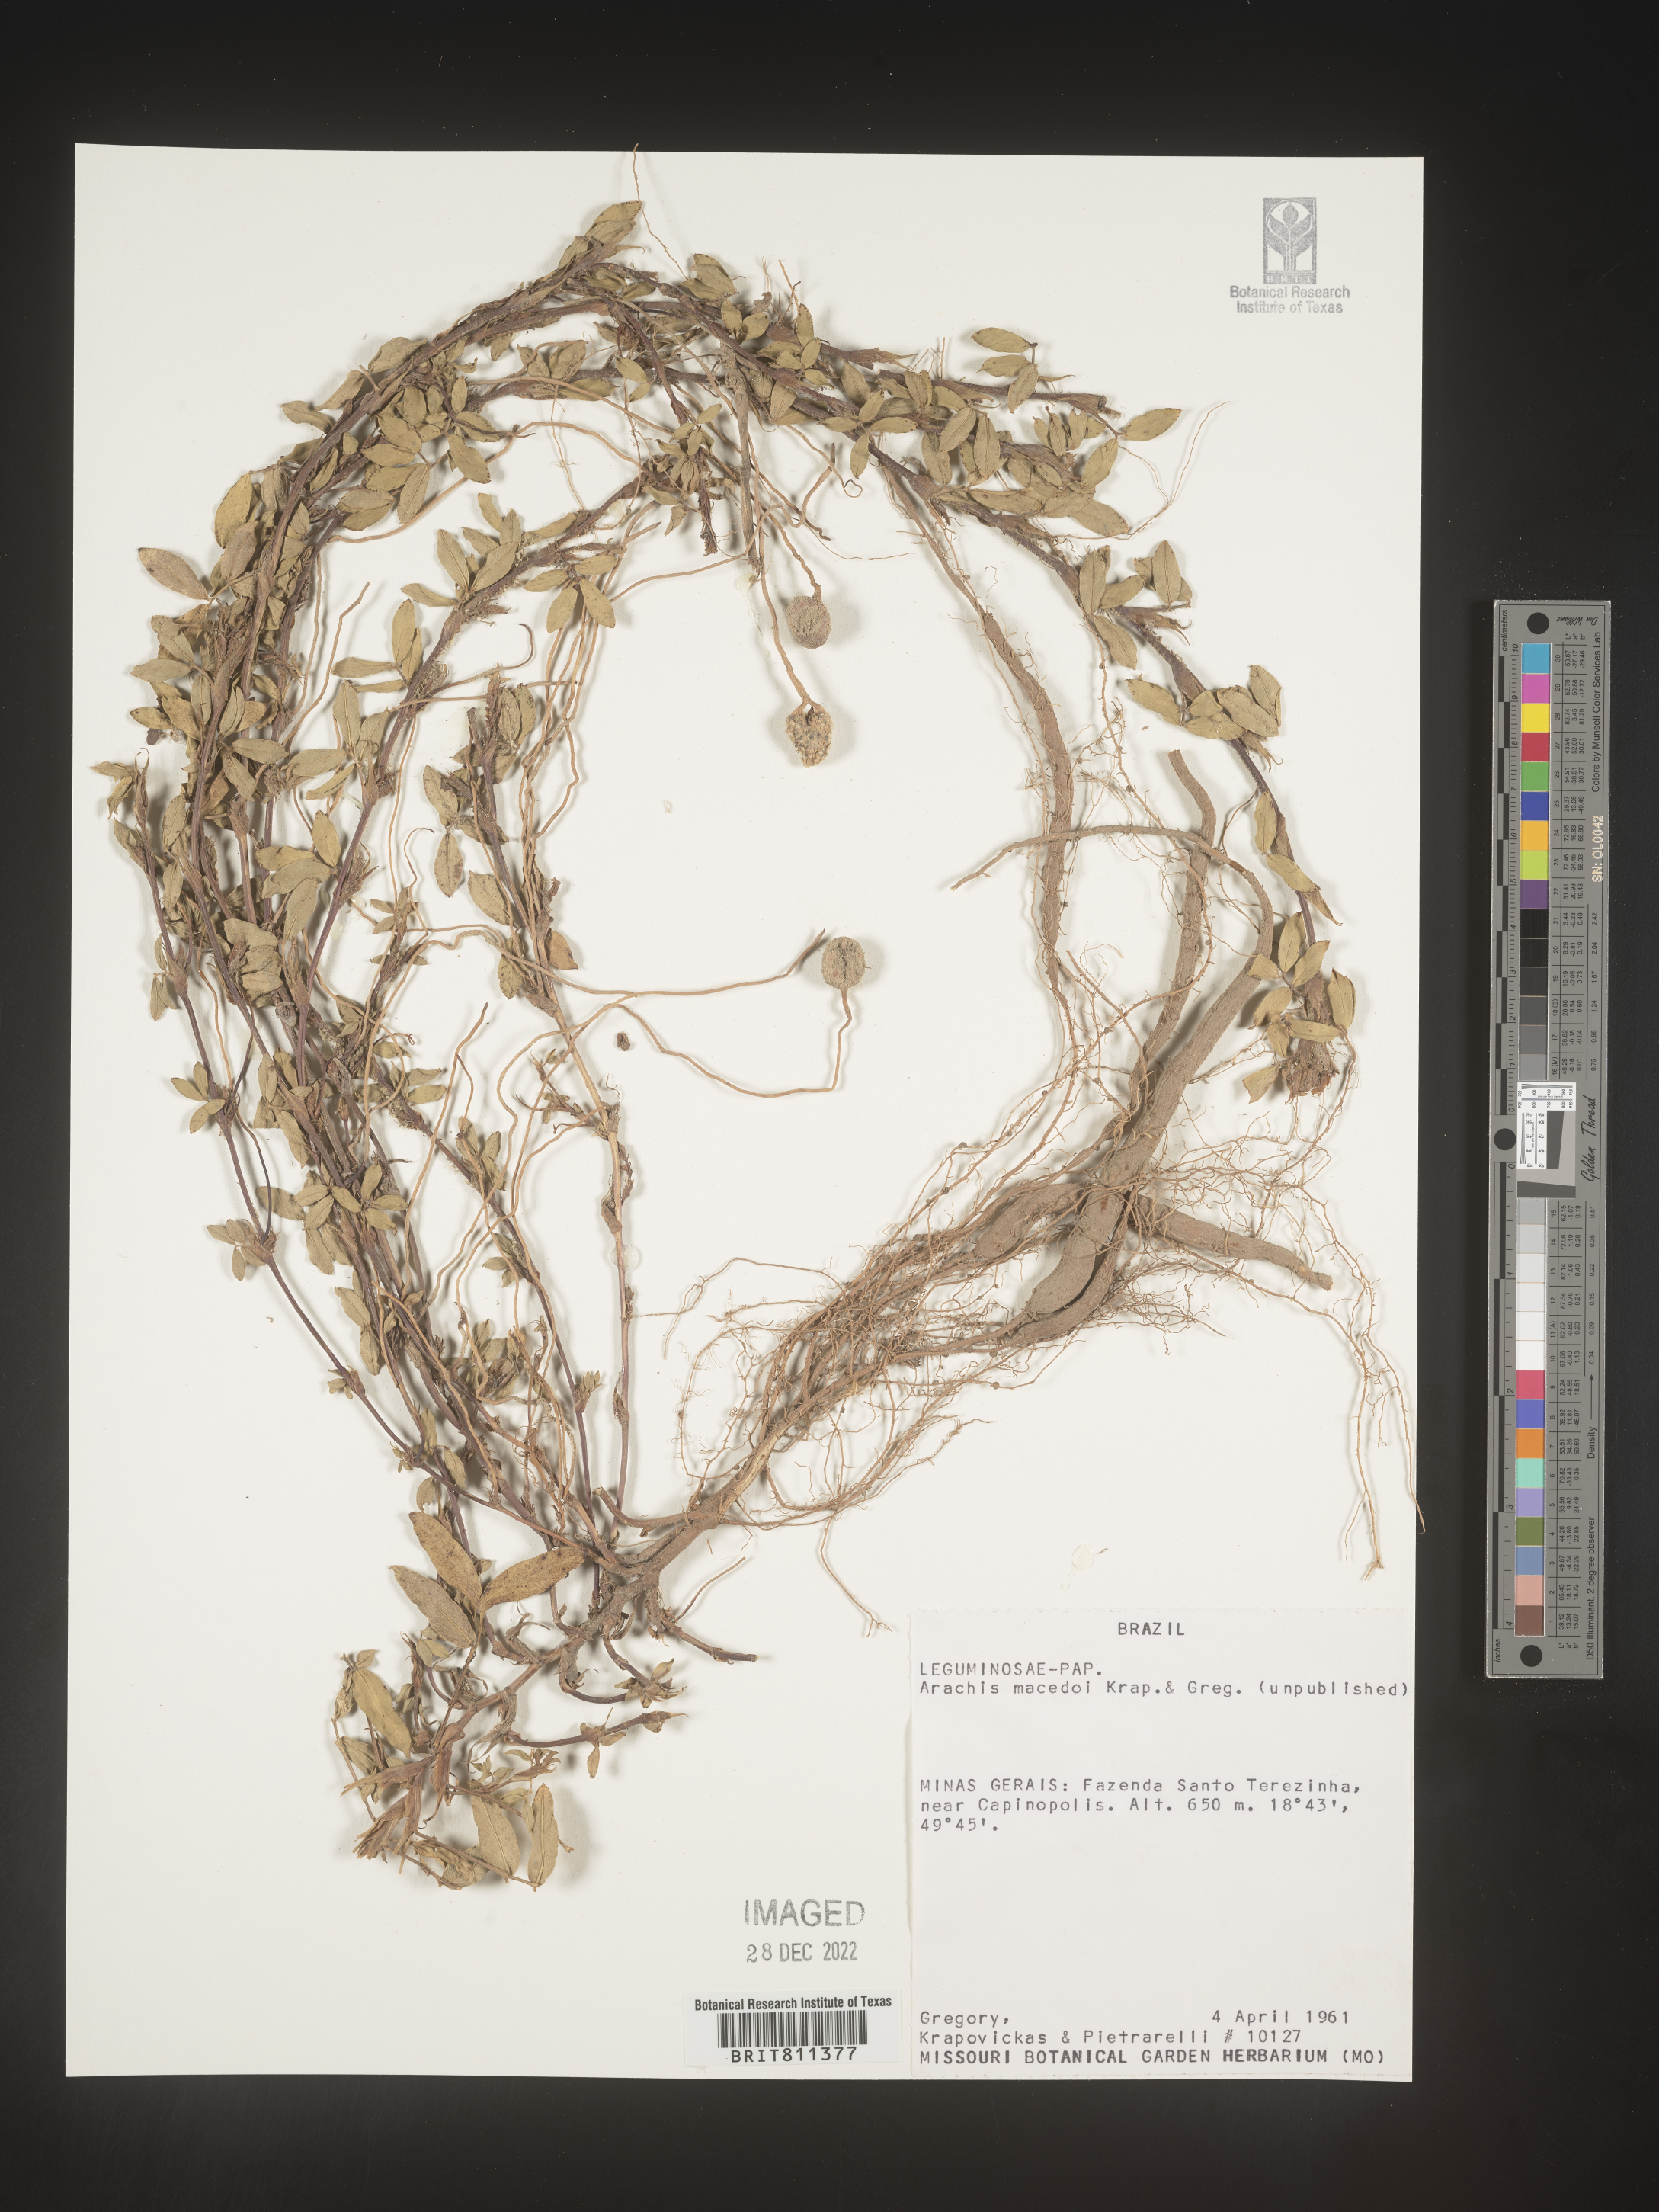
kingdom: Plantae
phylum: Tracheophyta
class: Magnoliopsida
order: Fabales
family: Fabaceae
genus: Arachis
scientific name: Arachis
